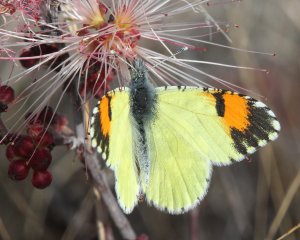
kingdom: Animalia
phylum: Arthropoda
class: Insecta
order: Lepidoptera
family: Pieridae
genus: Anthocharis
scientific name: Anthocharis cethura
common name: Desert Orangetip
